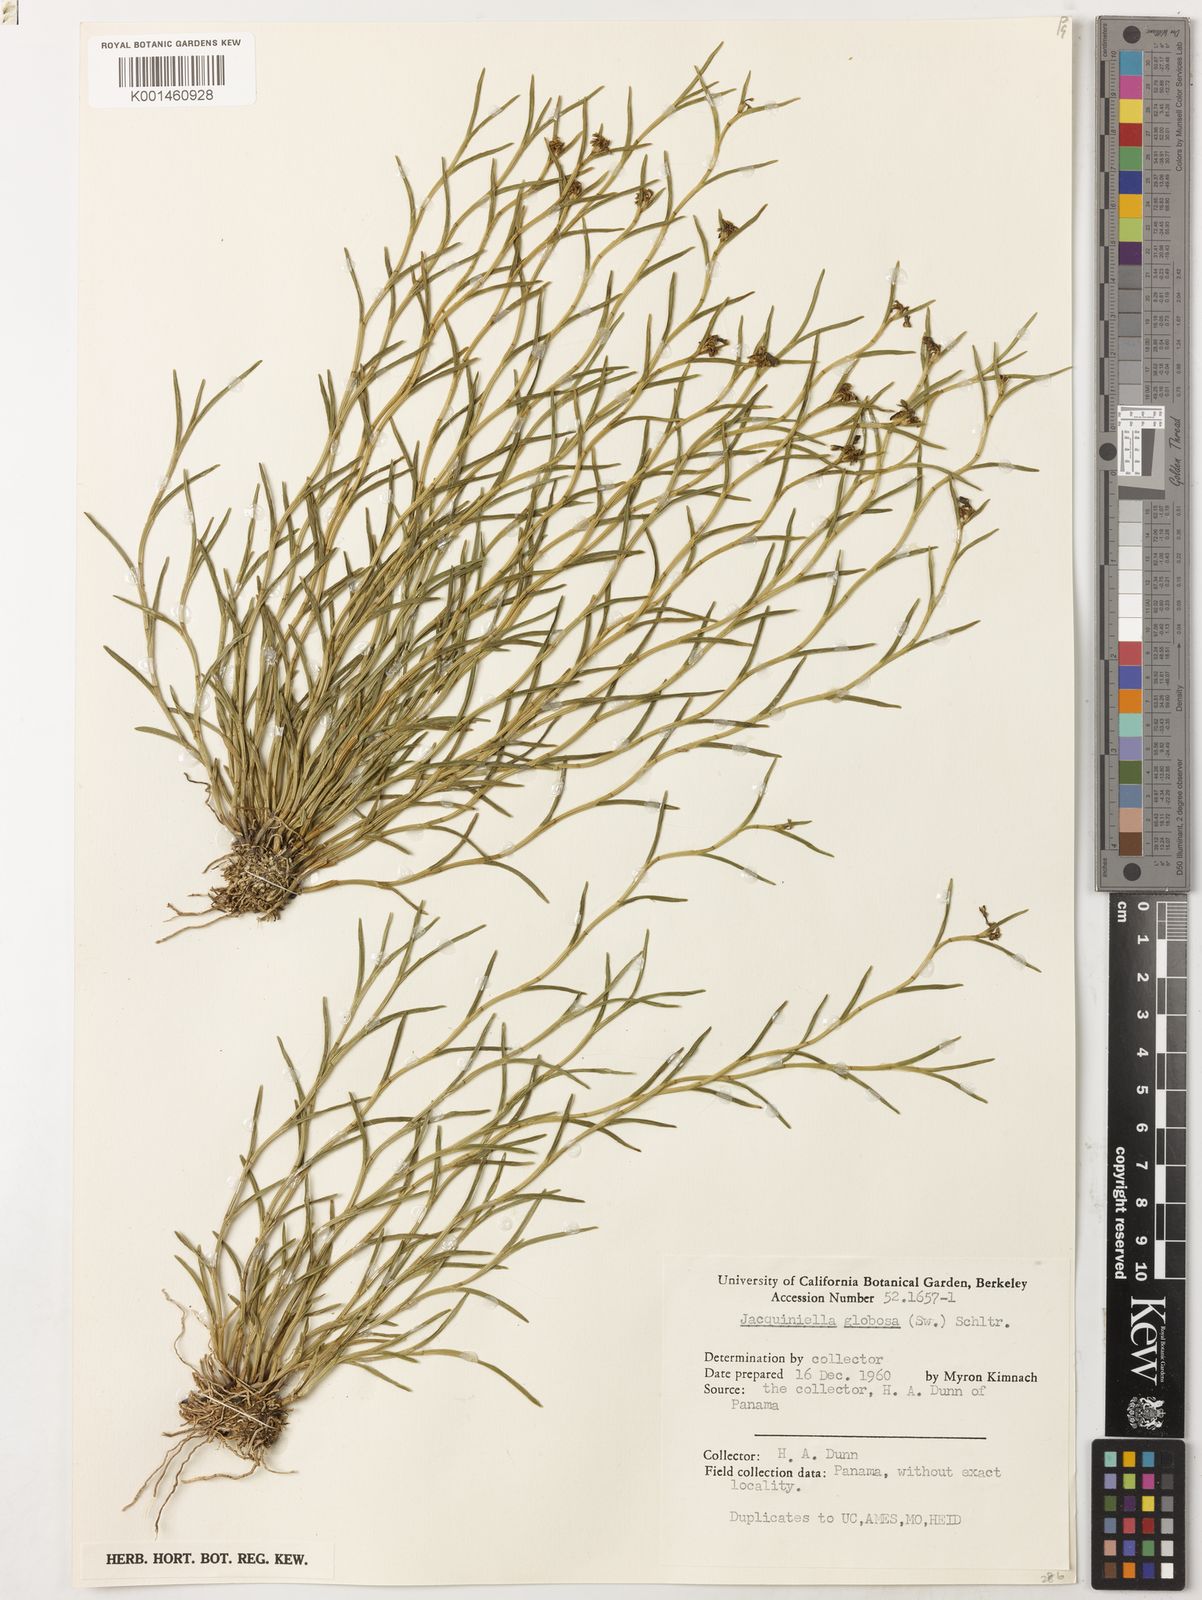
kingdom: Plantae
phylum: Tracheophyta
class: Liliopsida
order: Asparagales
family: Orchidaceae
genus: Jacquiniella
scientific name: Jacquiniella globosa
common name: Redblotch tufted orchid
